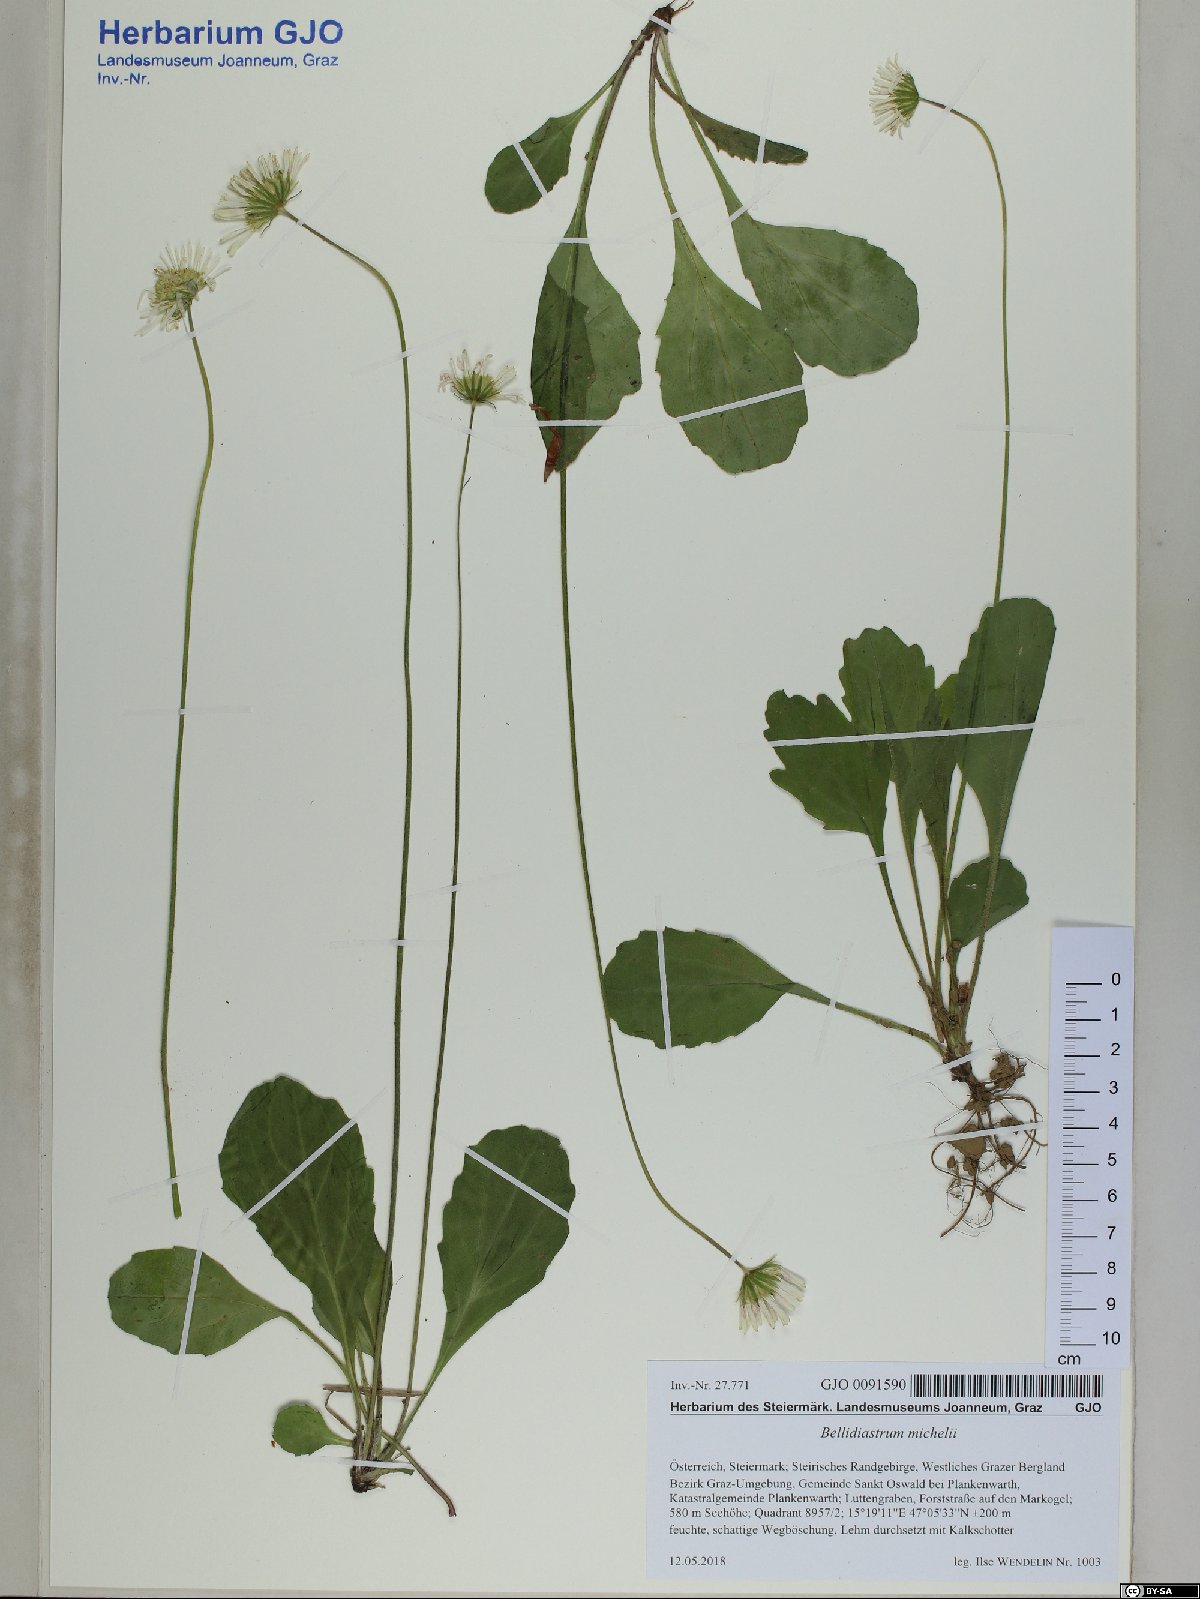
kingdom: Plantae
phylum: Tracheophyta
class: Magnoliopsida
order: Asterales
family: Asteraceae
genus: Bellidiastrum
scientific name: Bellidiastrum michelii
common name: Daisy-star aster
